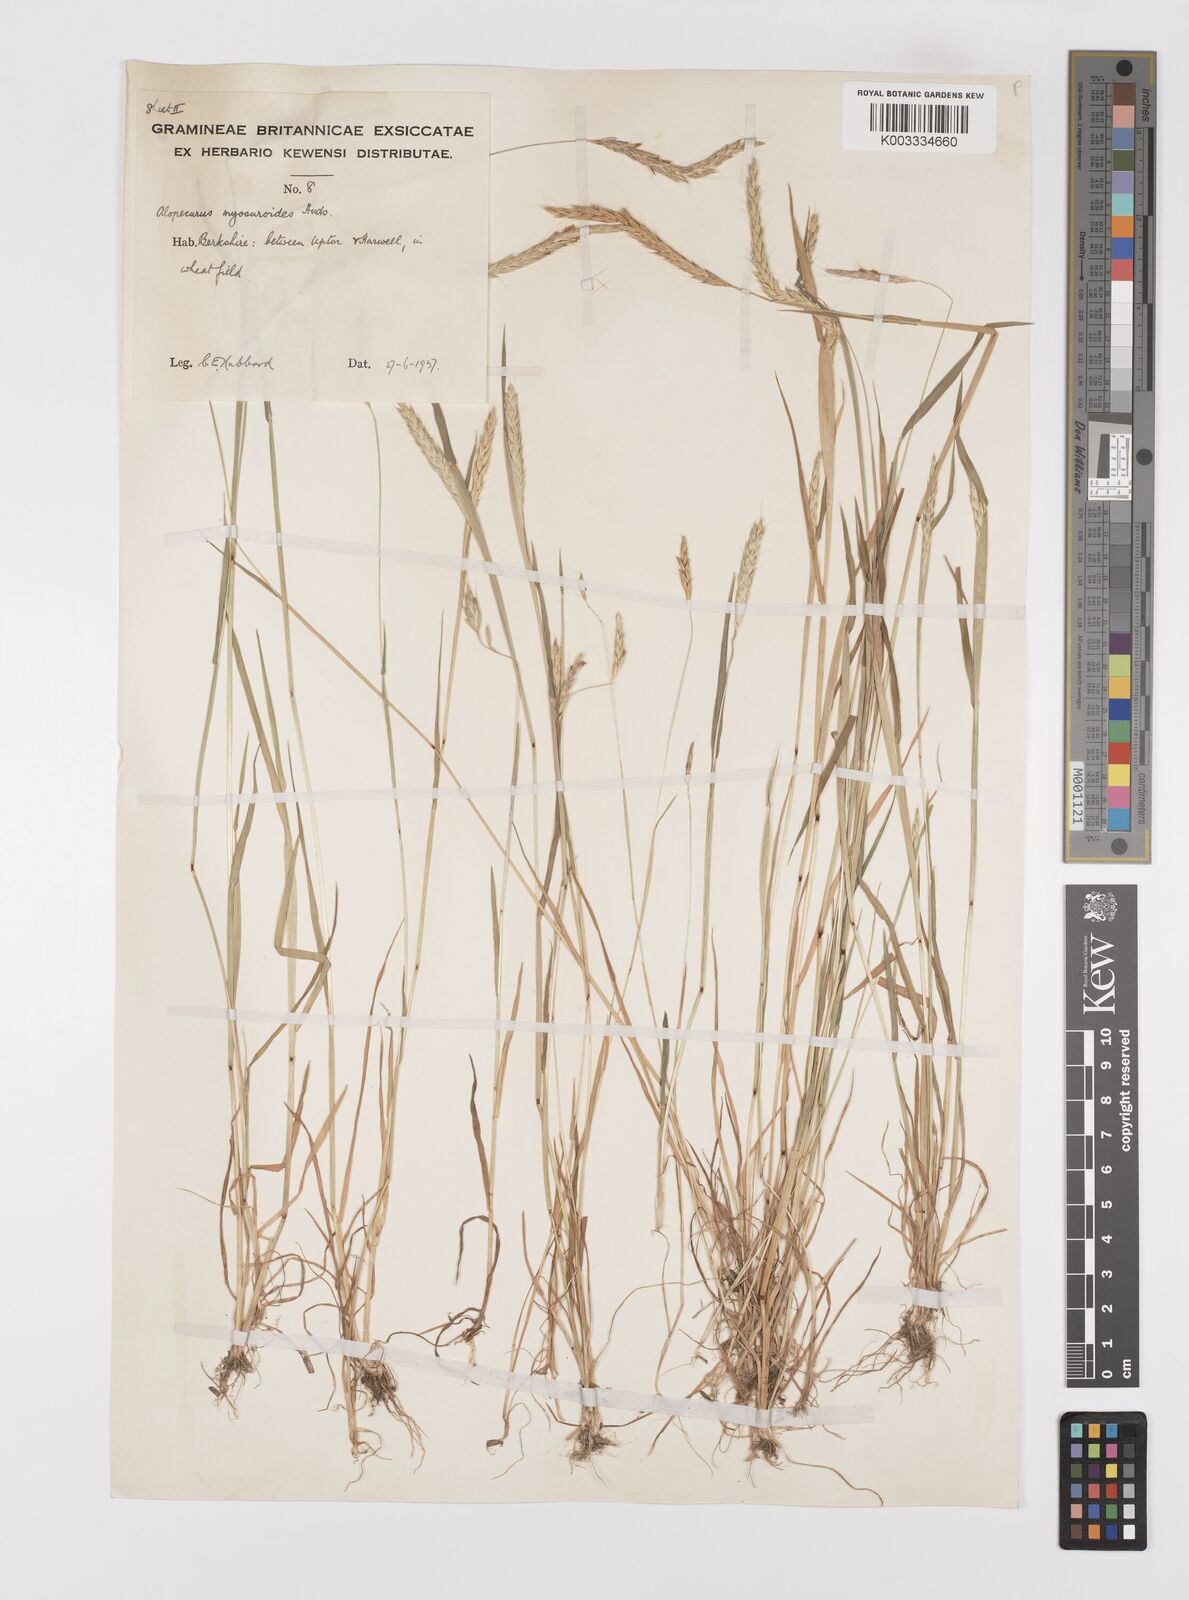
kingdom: Plantae
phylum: Tracheophyta
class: Liliopsida
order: Poales
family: Poaceae
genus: Alopecurus
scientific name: Alopecurus myosuroides
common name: Black-grass
